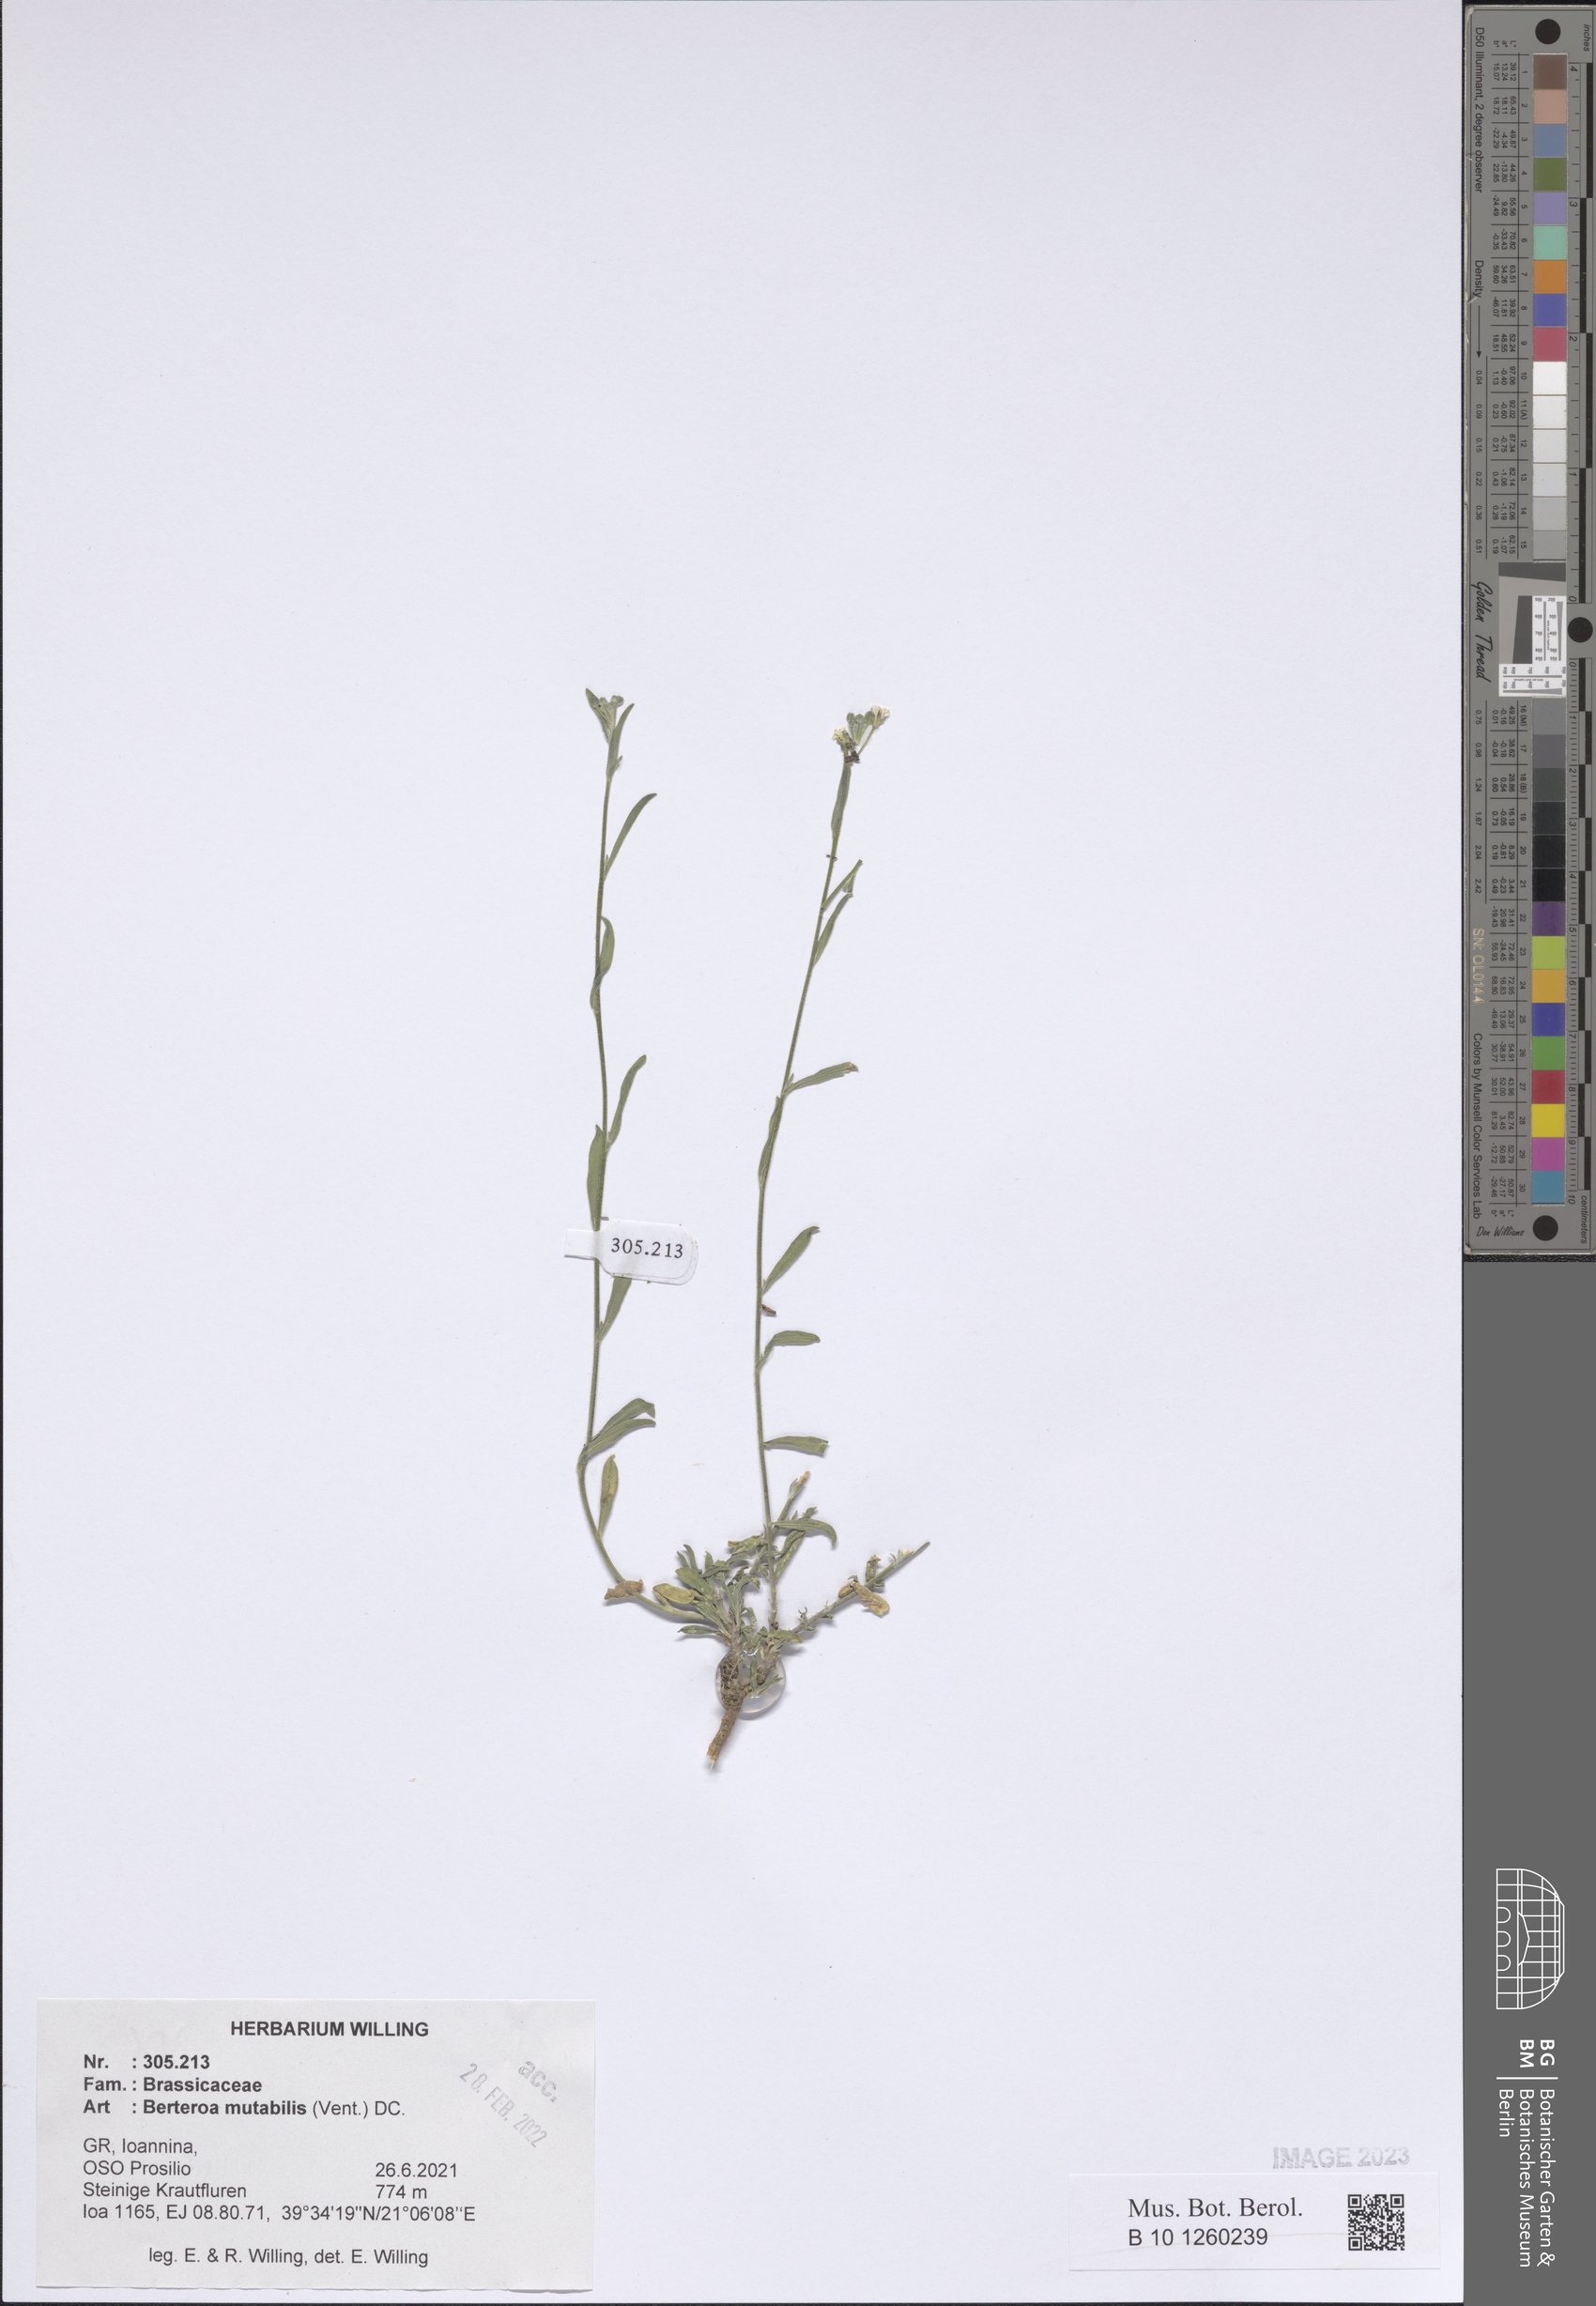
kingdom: Plantae
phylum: Tracheophyta
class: Magnoliopsida
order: Brassicales
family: Brassicaceae
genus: Berteroa
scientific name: Berteroa mutabilis
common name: Roadside false madwort
